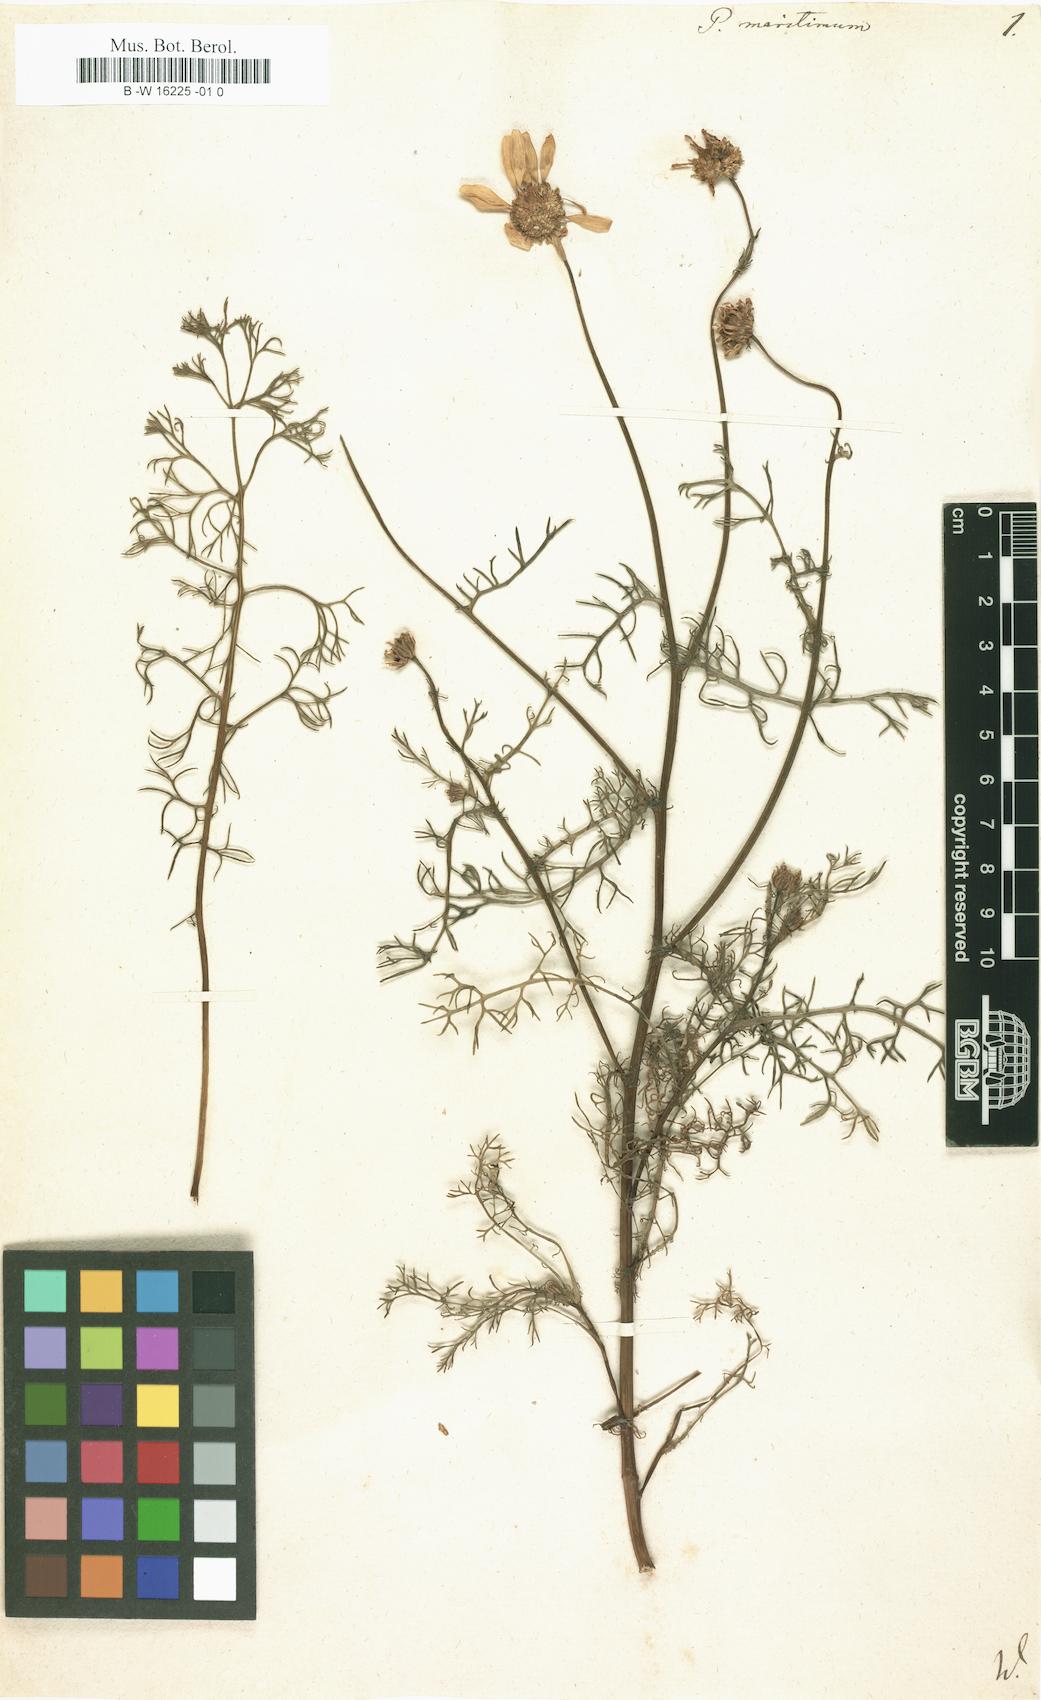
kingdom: Plantae
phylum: Tracheophyta
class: Magnoliopsida
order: Asterales
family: Asteraceae
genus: Tripleurospermum
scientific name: Tripleurospermum maritimum
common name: Sea mayweed
